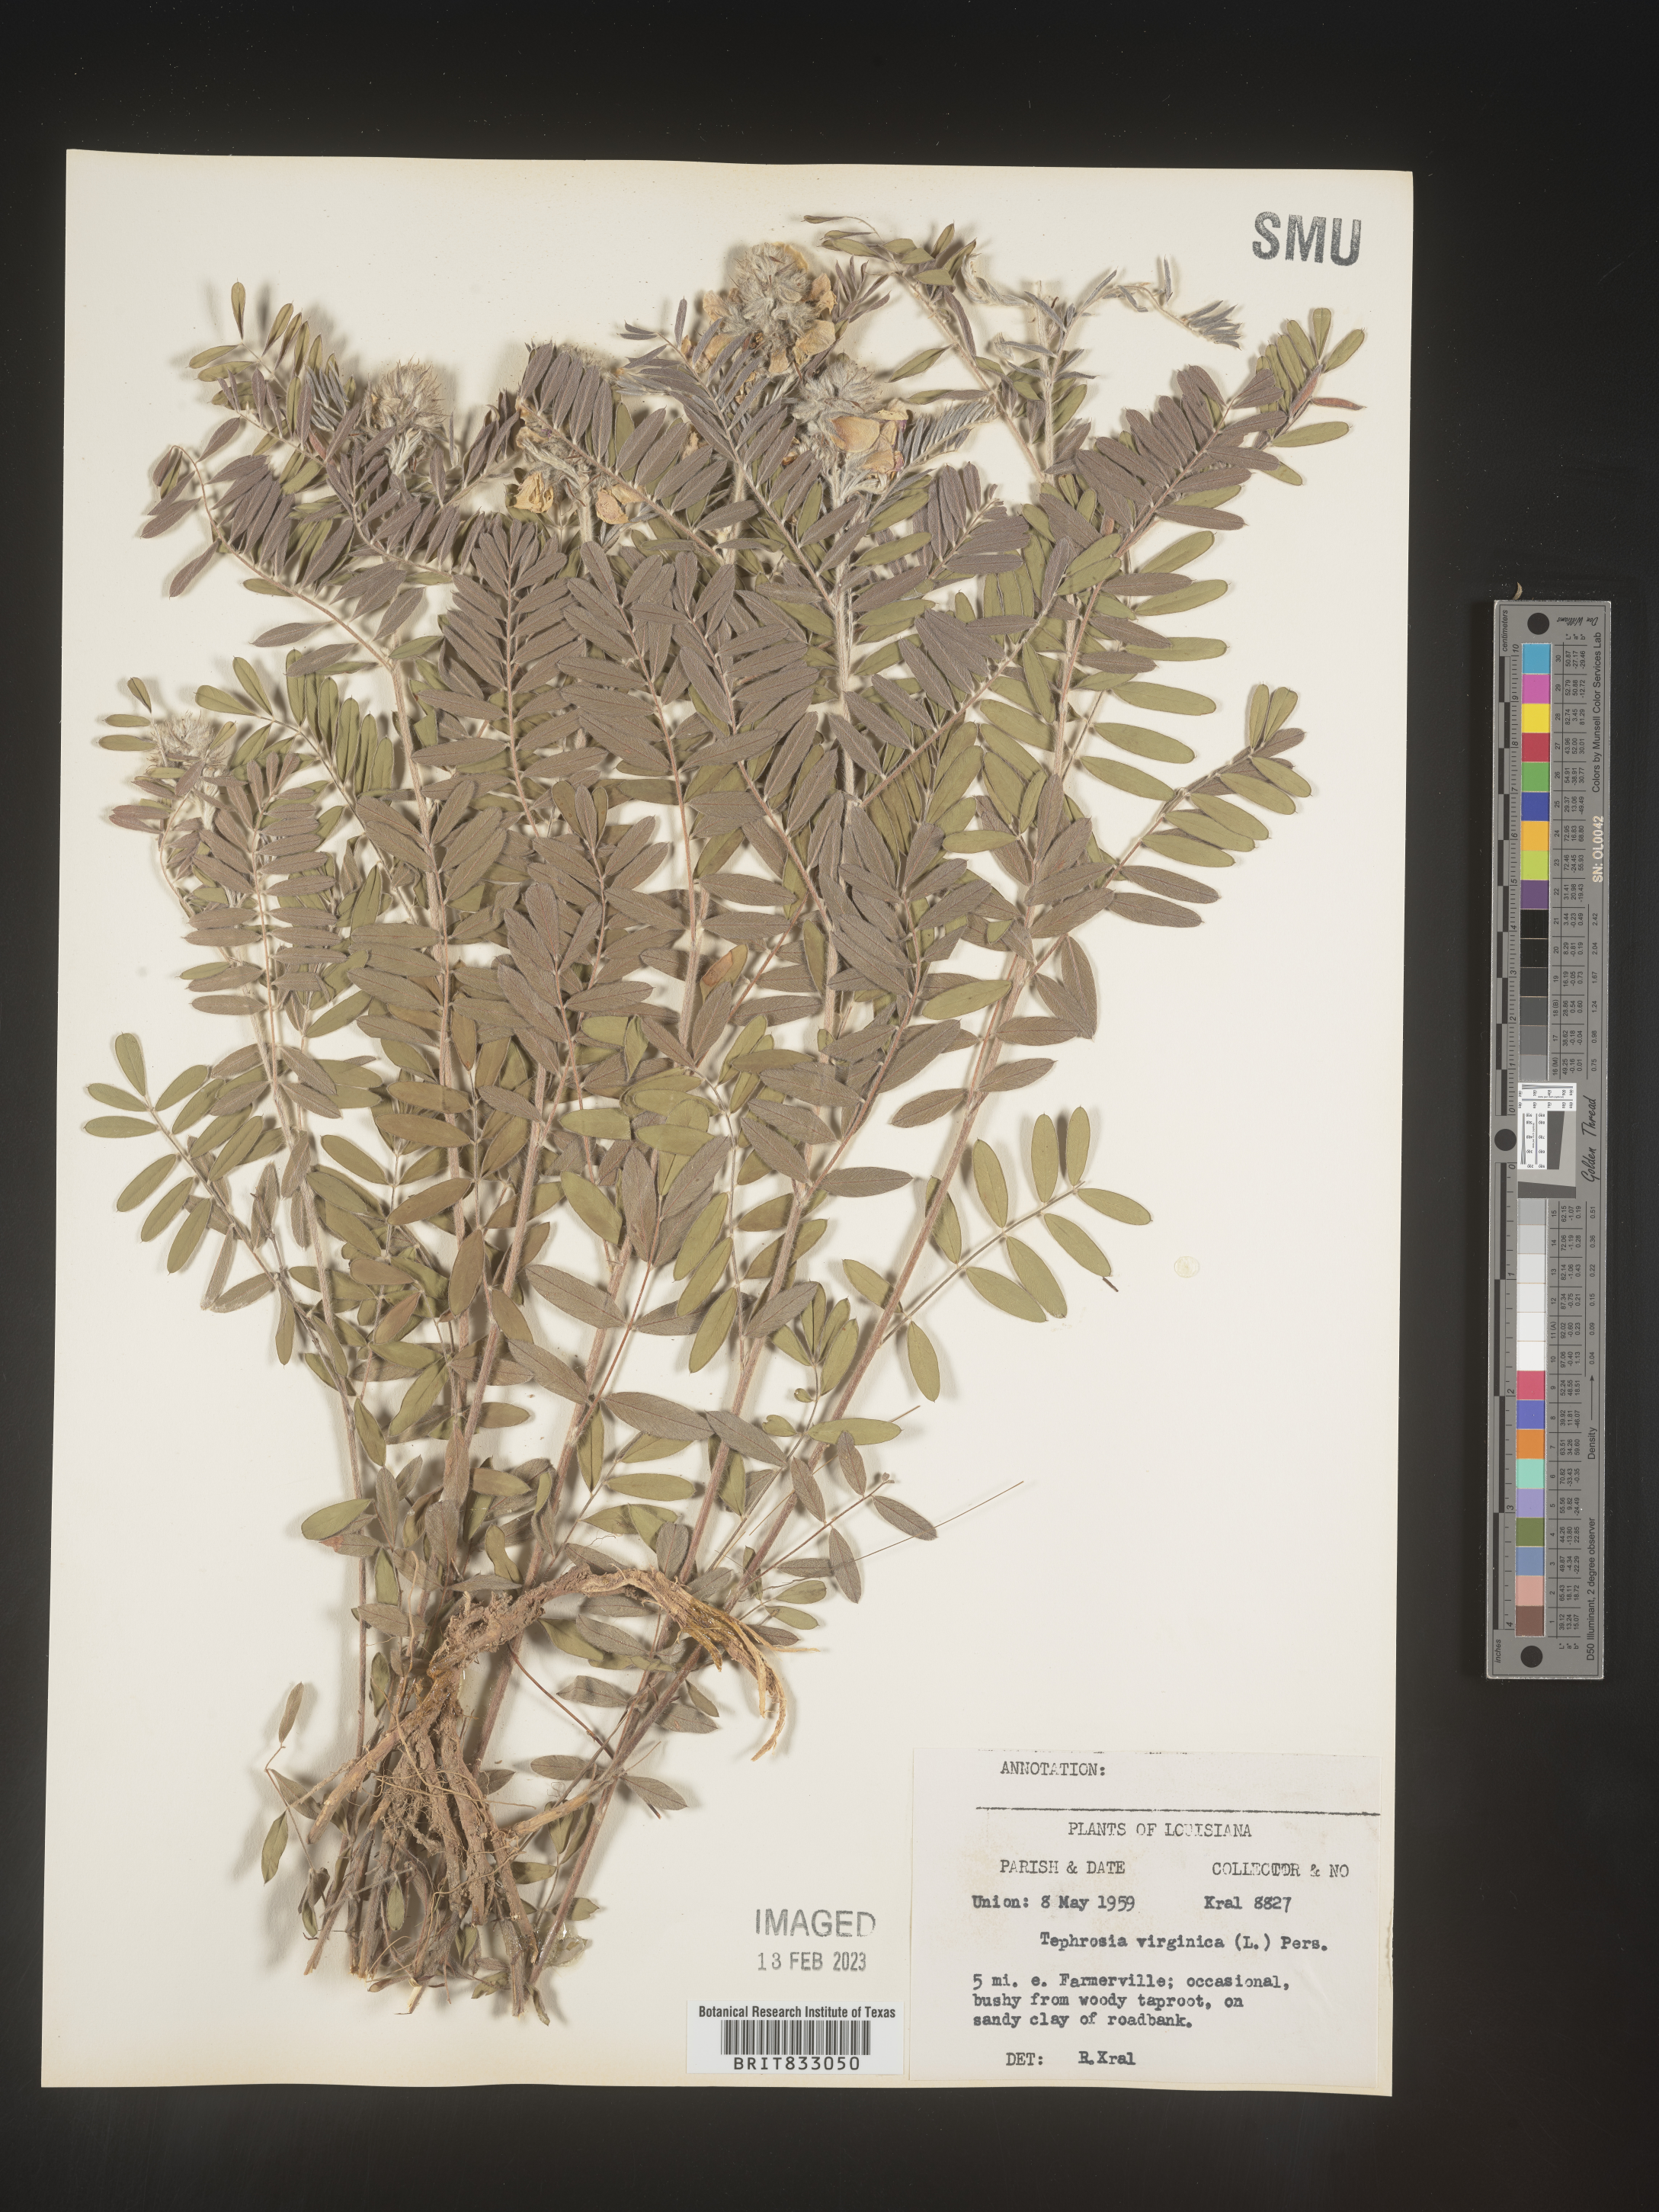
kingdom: Plantae
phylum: Tracheophyta
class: Magnoliopsida
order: Fabales
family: Fabaceae
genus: Tephrosia
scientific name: Tephrosia virginiana
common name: Rabbit-pea
